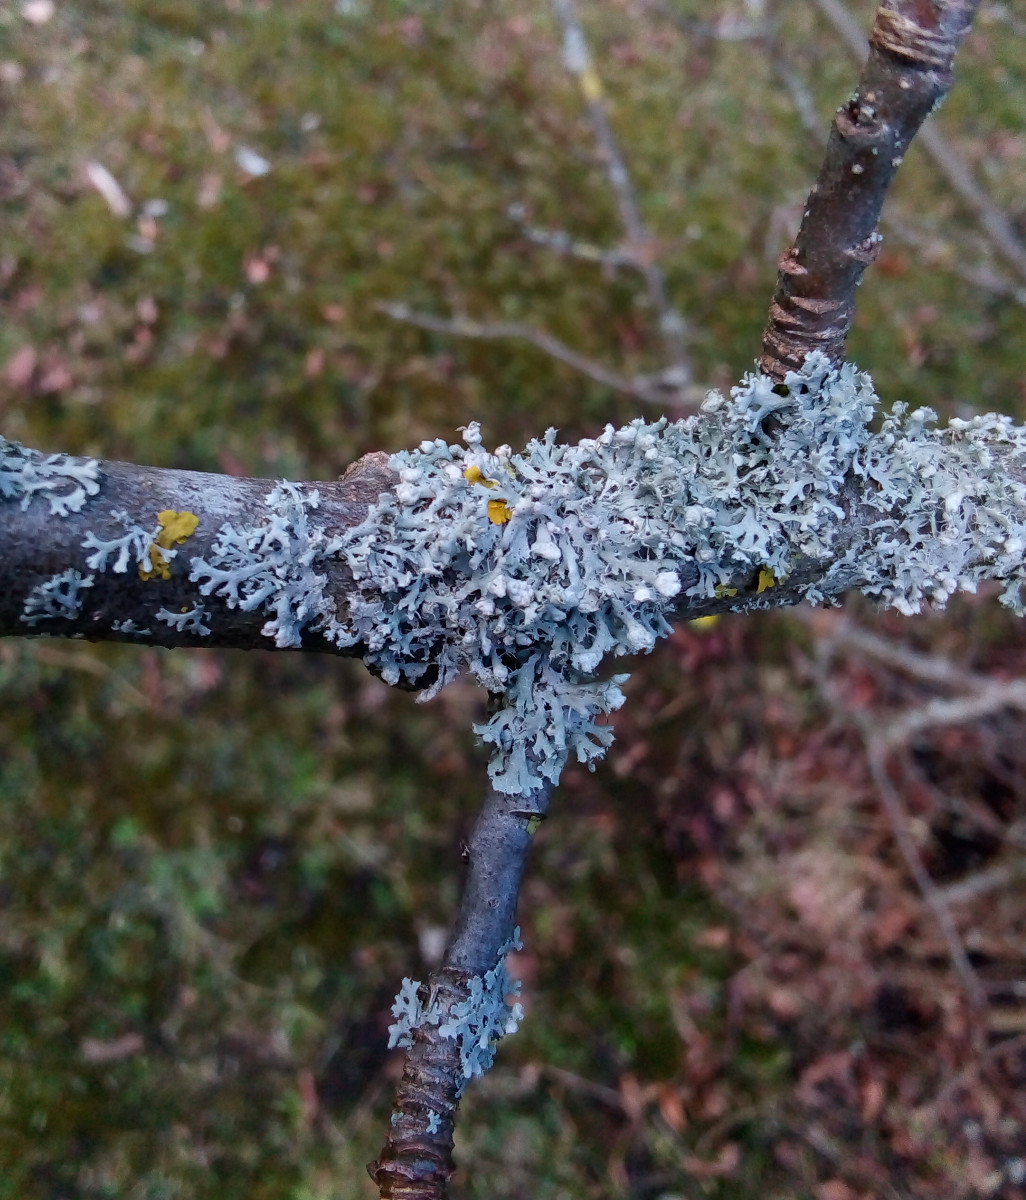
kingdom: Fungi
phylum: Ascomycota
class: Lecanoromycetes
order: Caliciales
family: Physciaceae
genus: Physcia
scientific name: Physcia adscendens
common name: hætte-rosetlav
